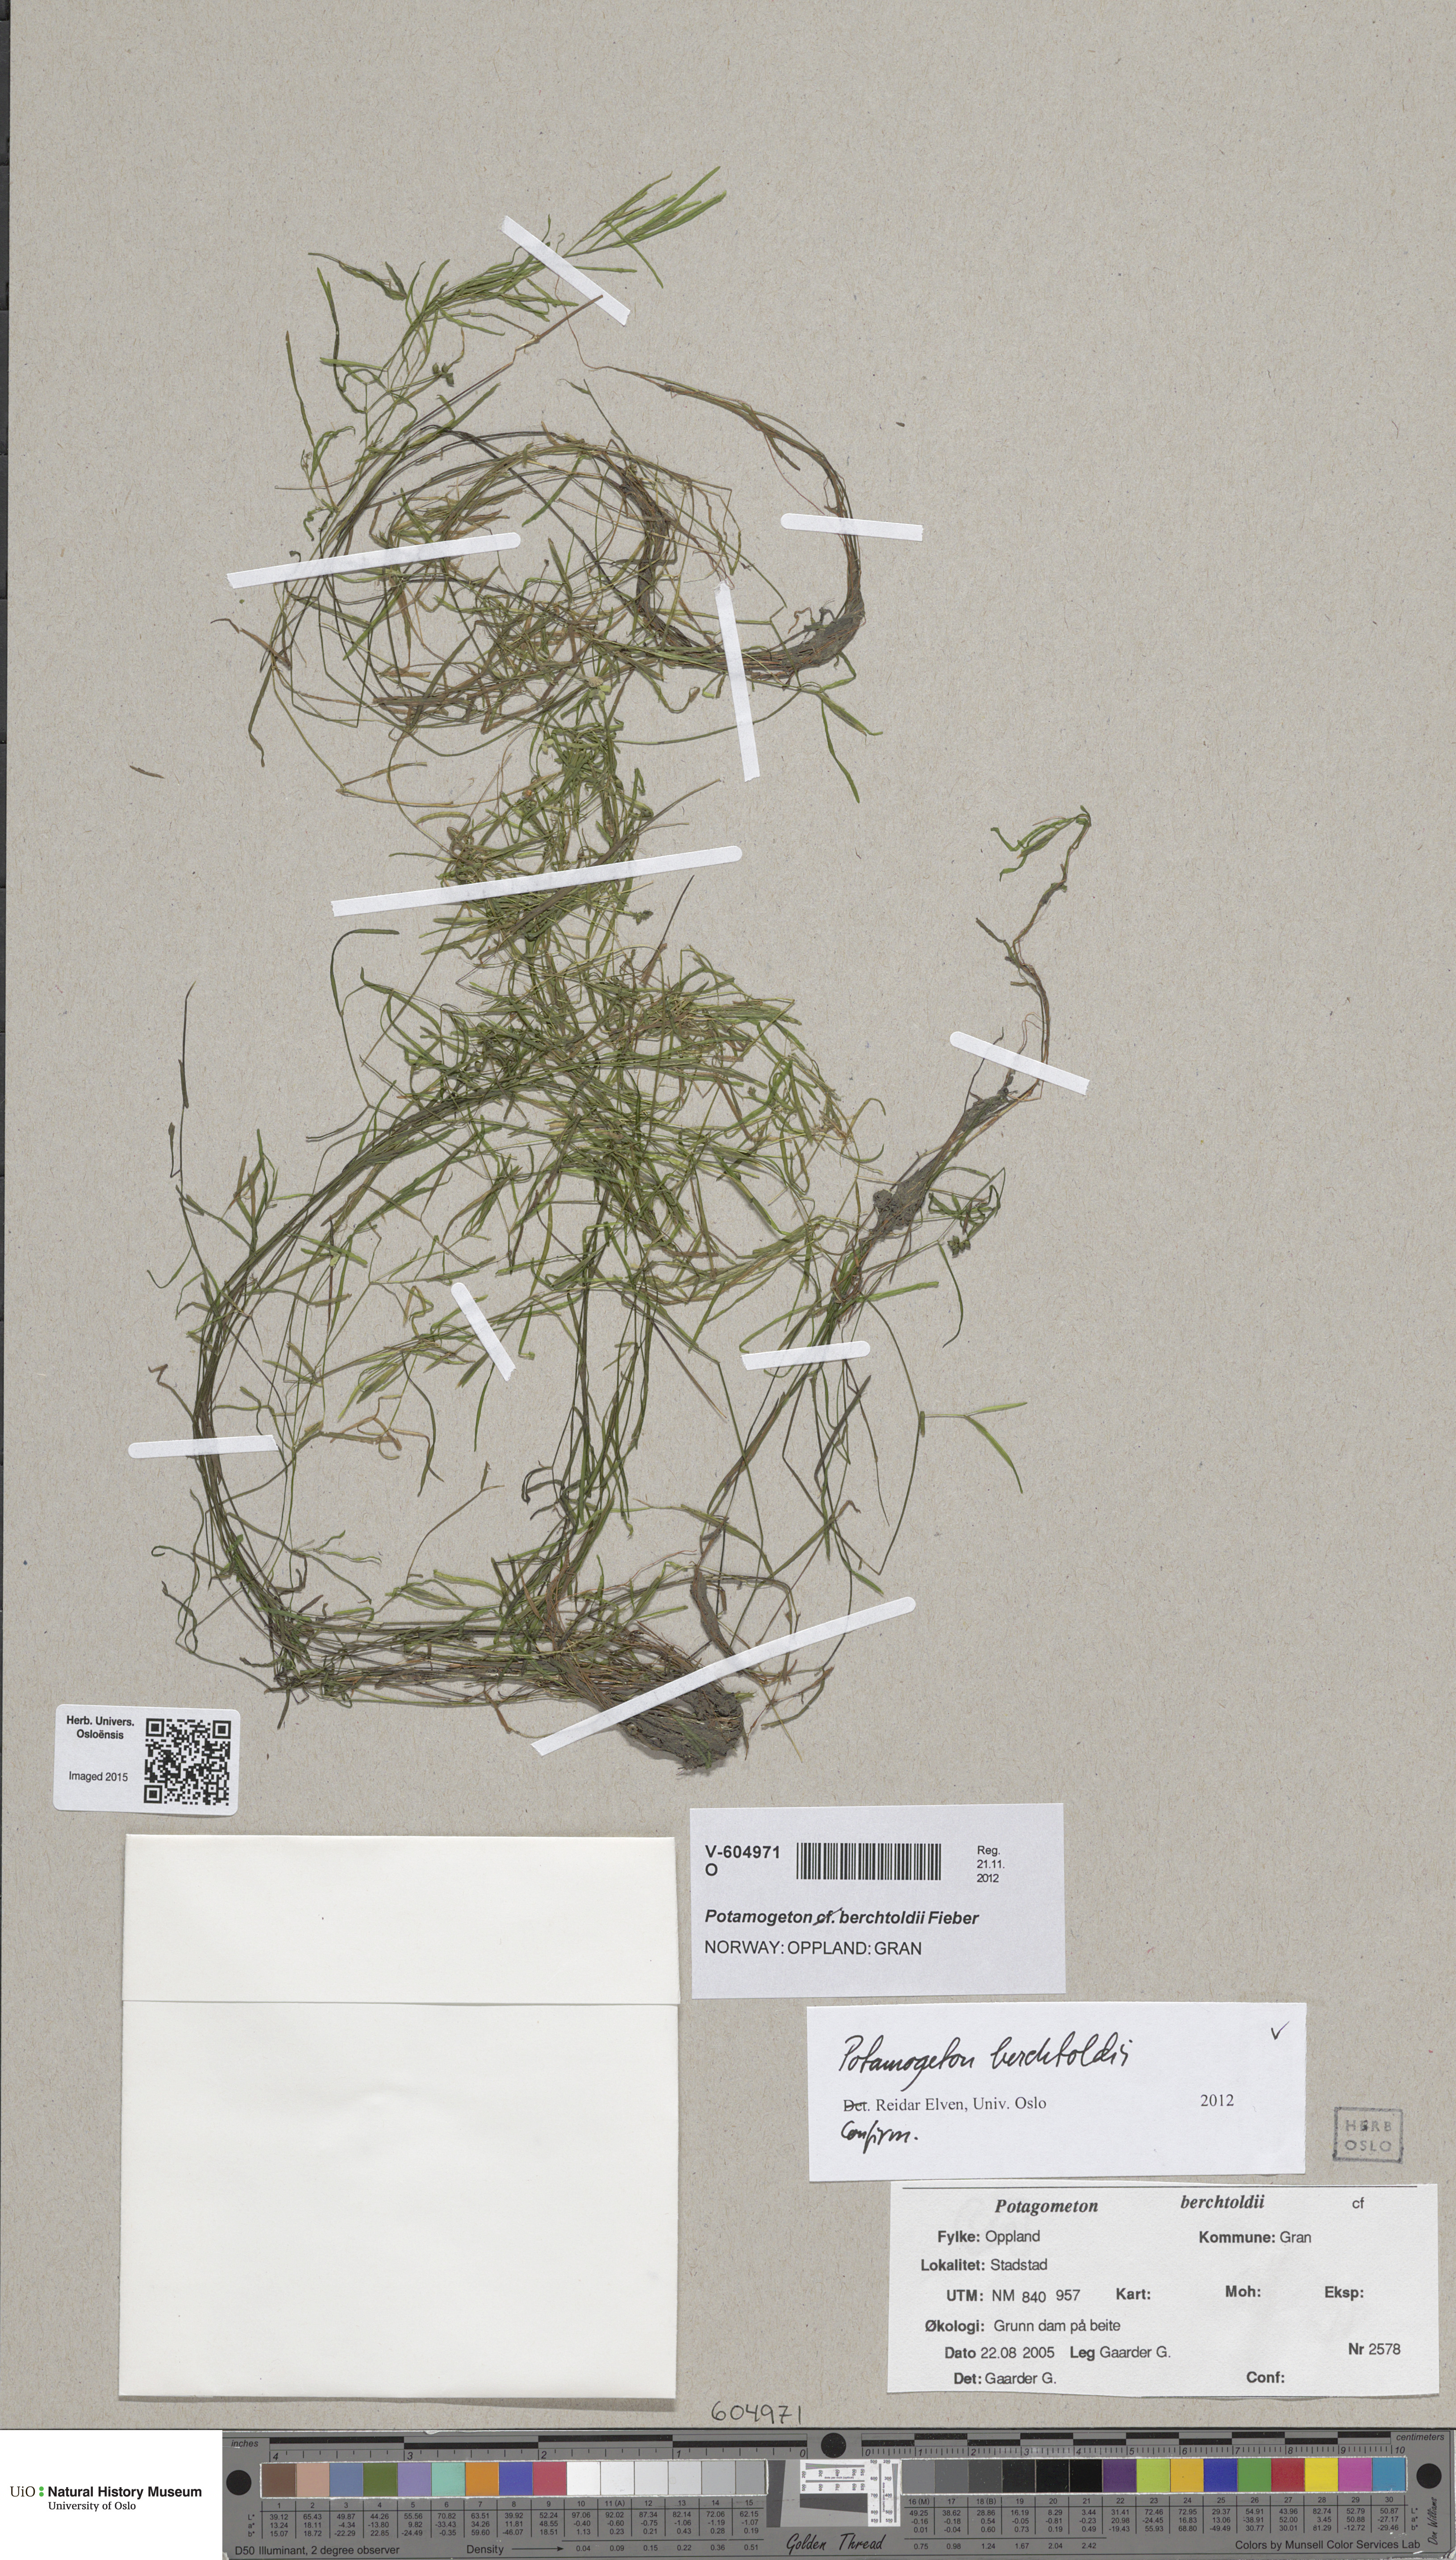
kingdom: Plantae
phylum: Tracheophyta
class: Liliopsida
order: Alismatales
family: Potamogetonaceae
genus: Potamogeton
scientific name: Potamogeton berchtoldii
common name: Small pondweed
